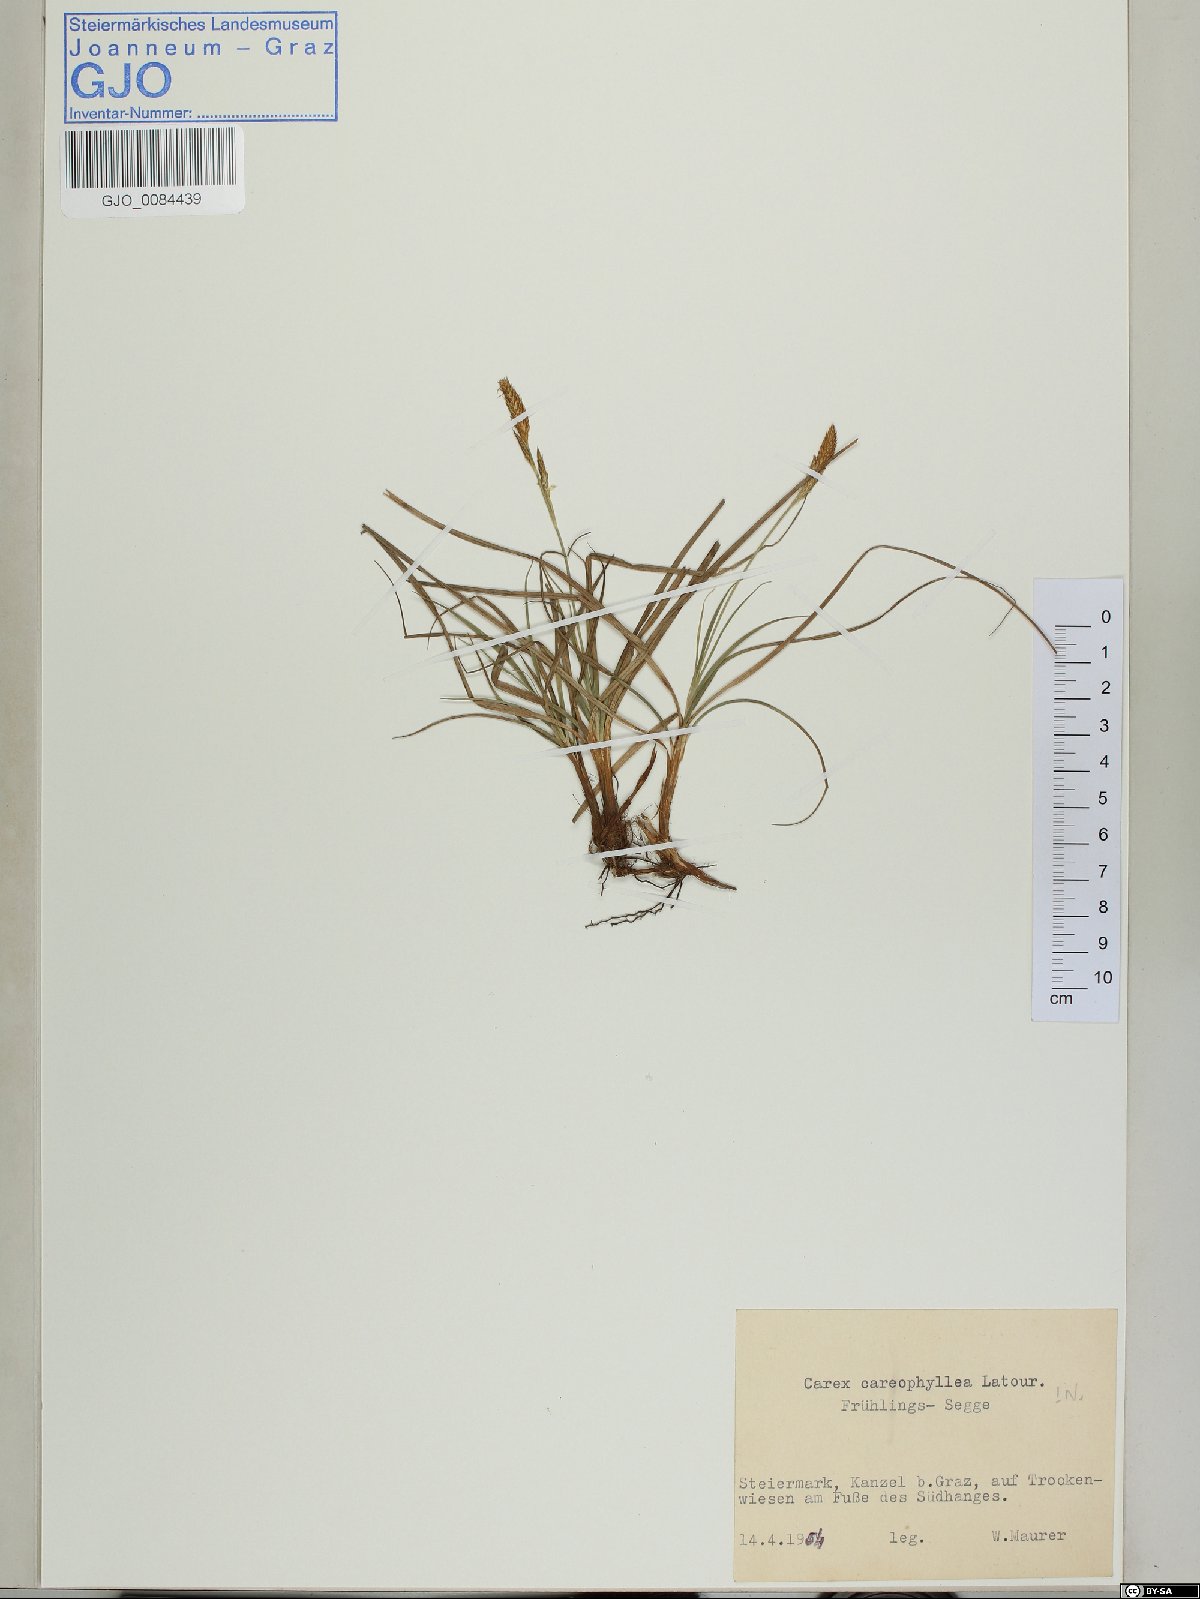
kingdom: Plantae
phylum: Tracheophyta
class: Liliopsida
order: Poales
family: Cyperaceae
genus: Carex
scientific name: Carex caryophyllea
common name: Spring sedge
